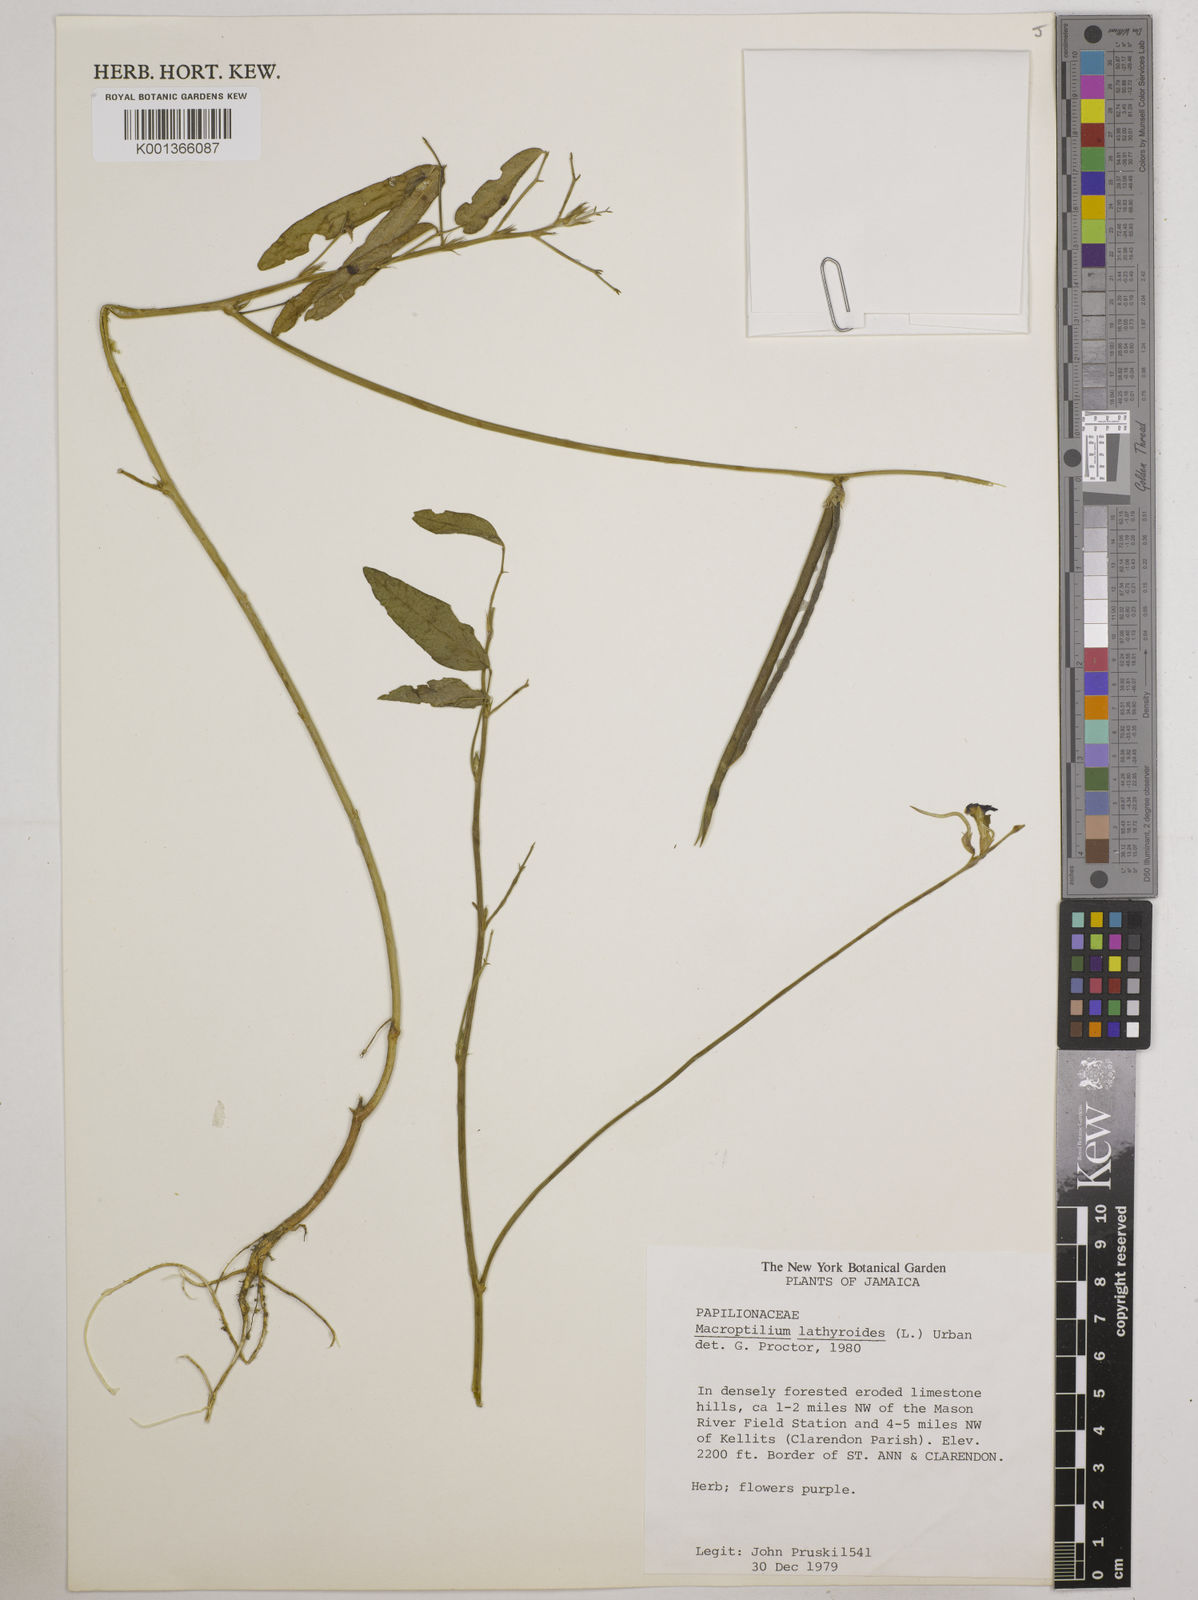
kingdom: Plantae
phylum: Tracheophyta
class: Magnoliopsida
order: Fabales
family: Fabaceae
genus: Macroptilium
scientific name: Macroptilium lathyroides
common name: Wild bushbean
